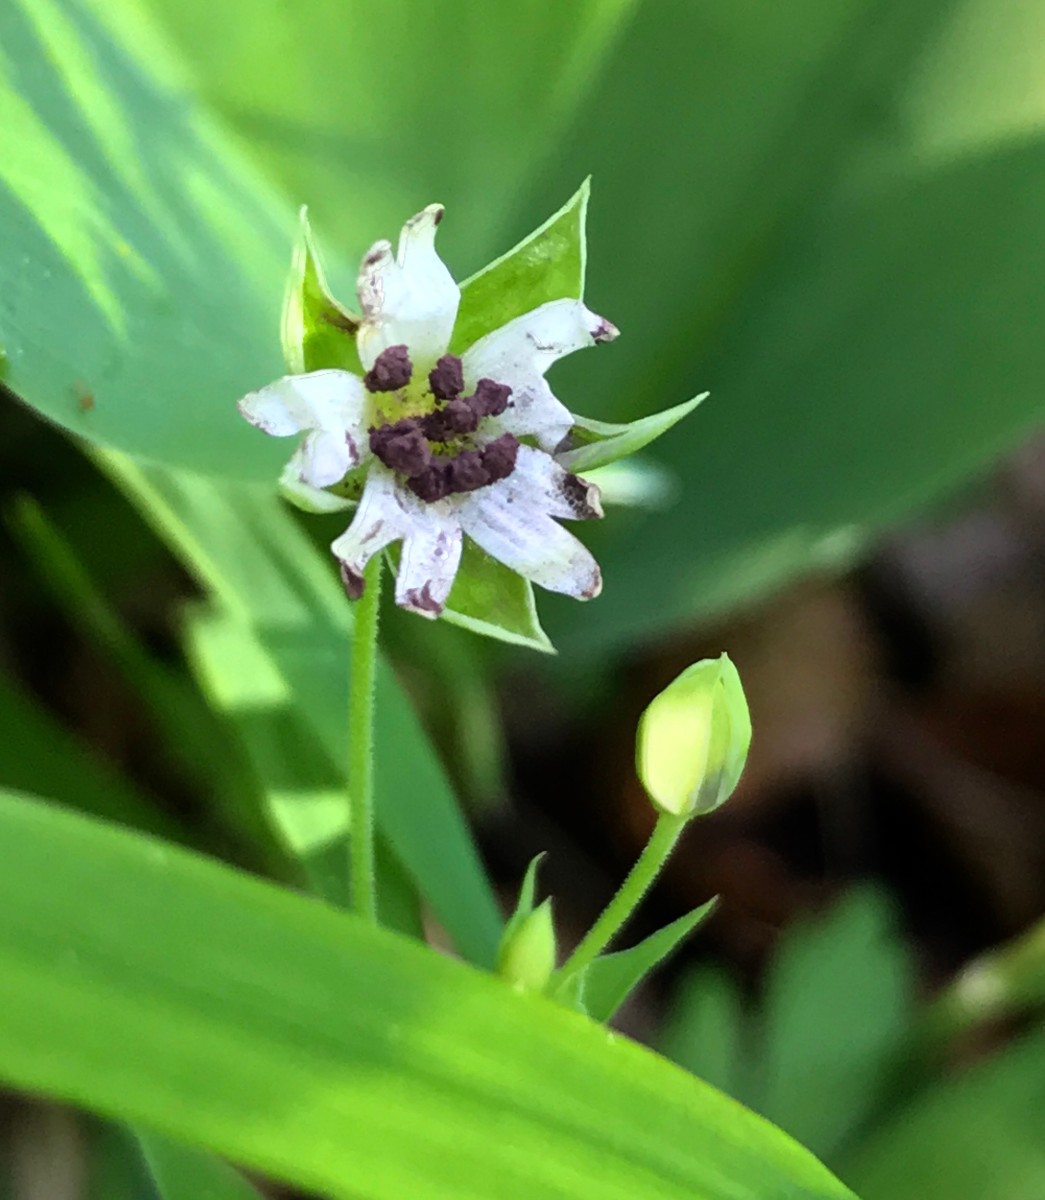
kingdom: Fungi
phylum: Basidiomycota
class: Microbotryomycetes
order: Microbotryales
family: Microbotryaceae
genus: Microbotryum
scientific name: Microbotryum stellariae
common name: fladstjerne-støvbladrust
